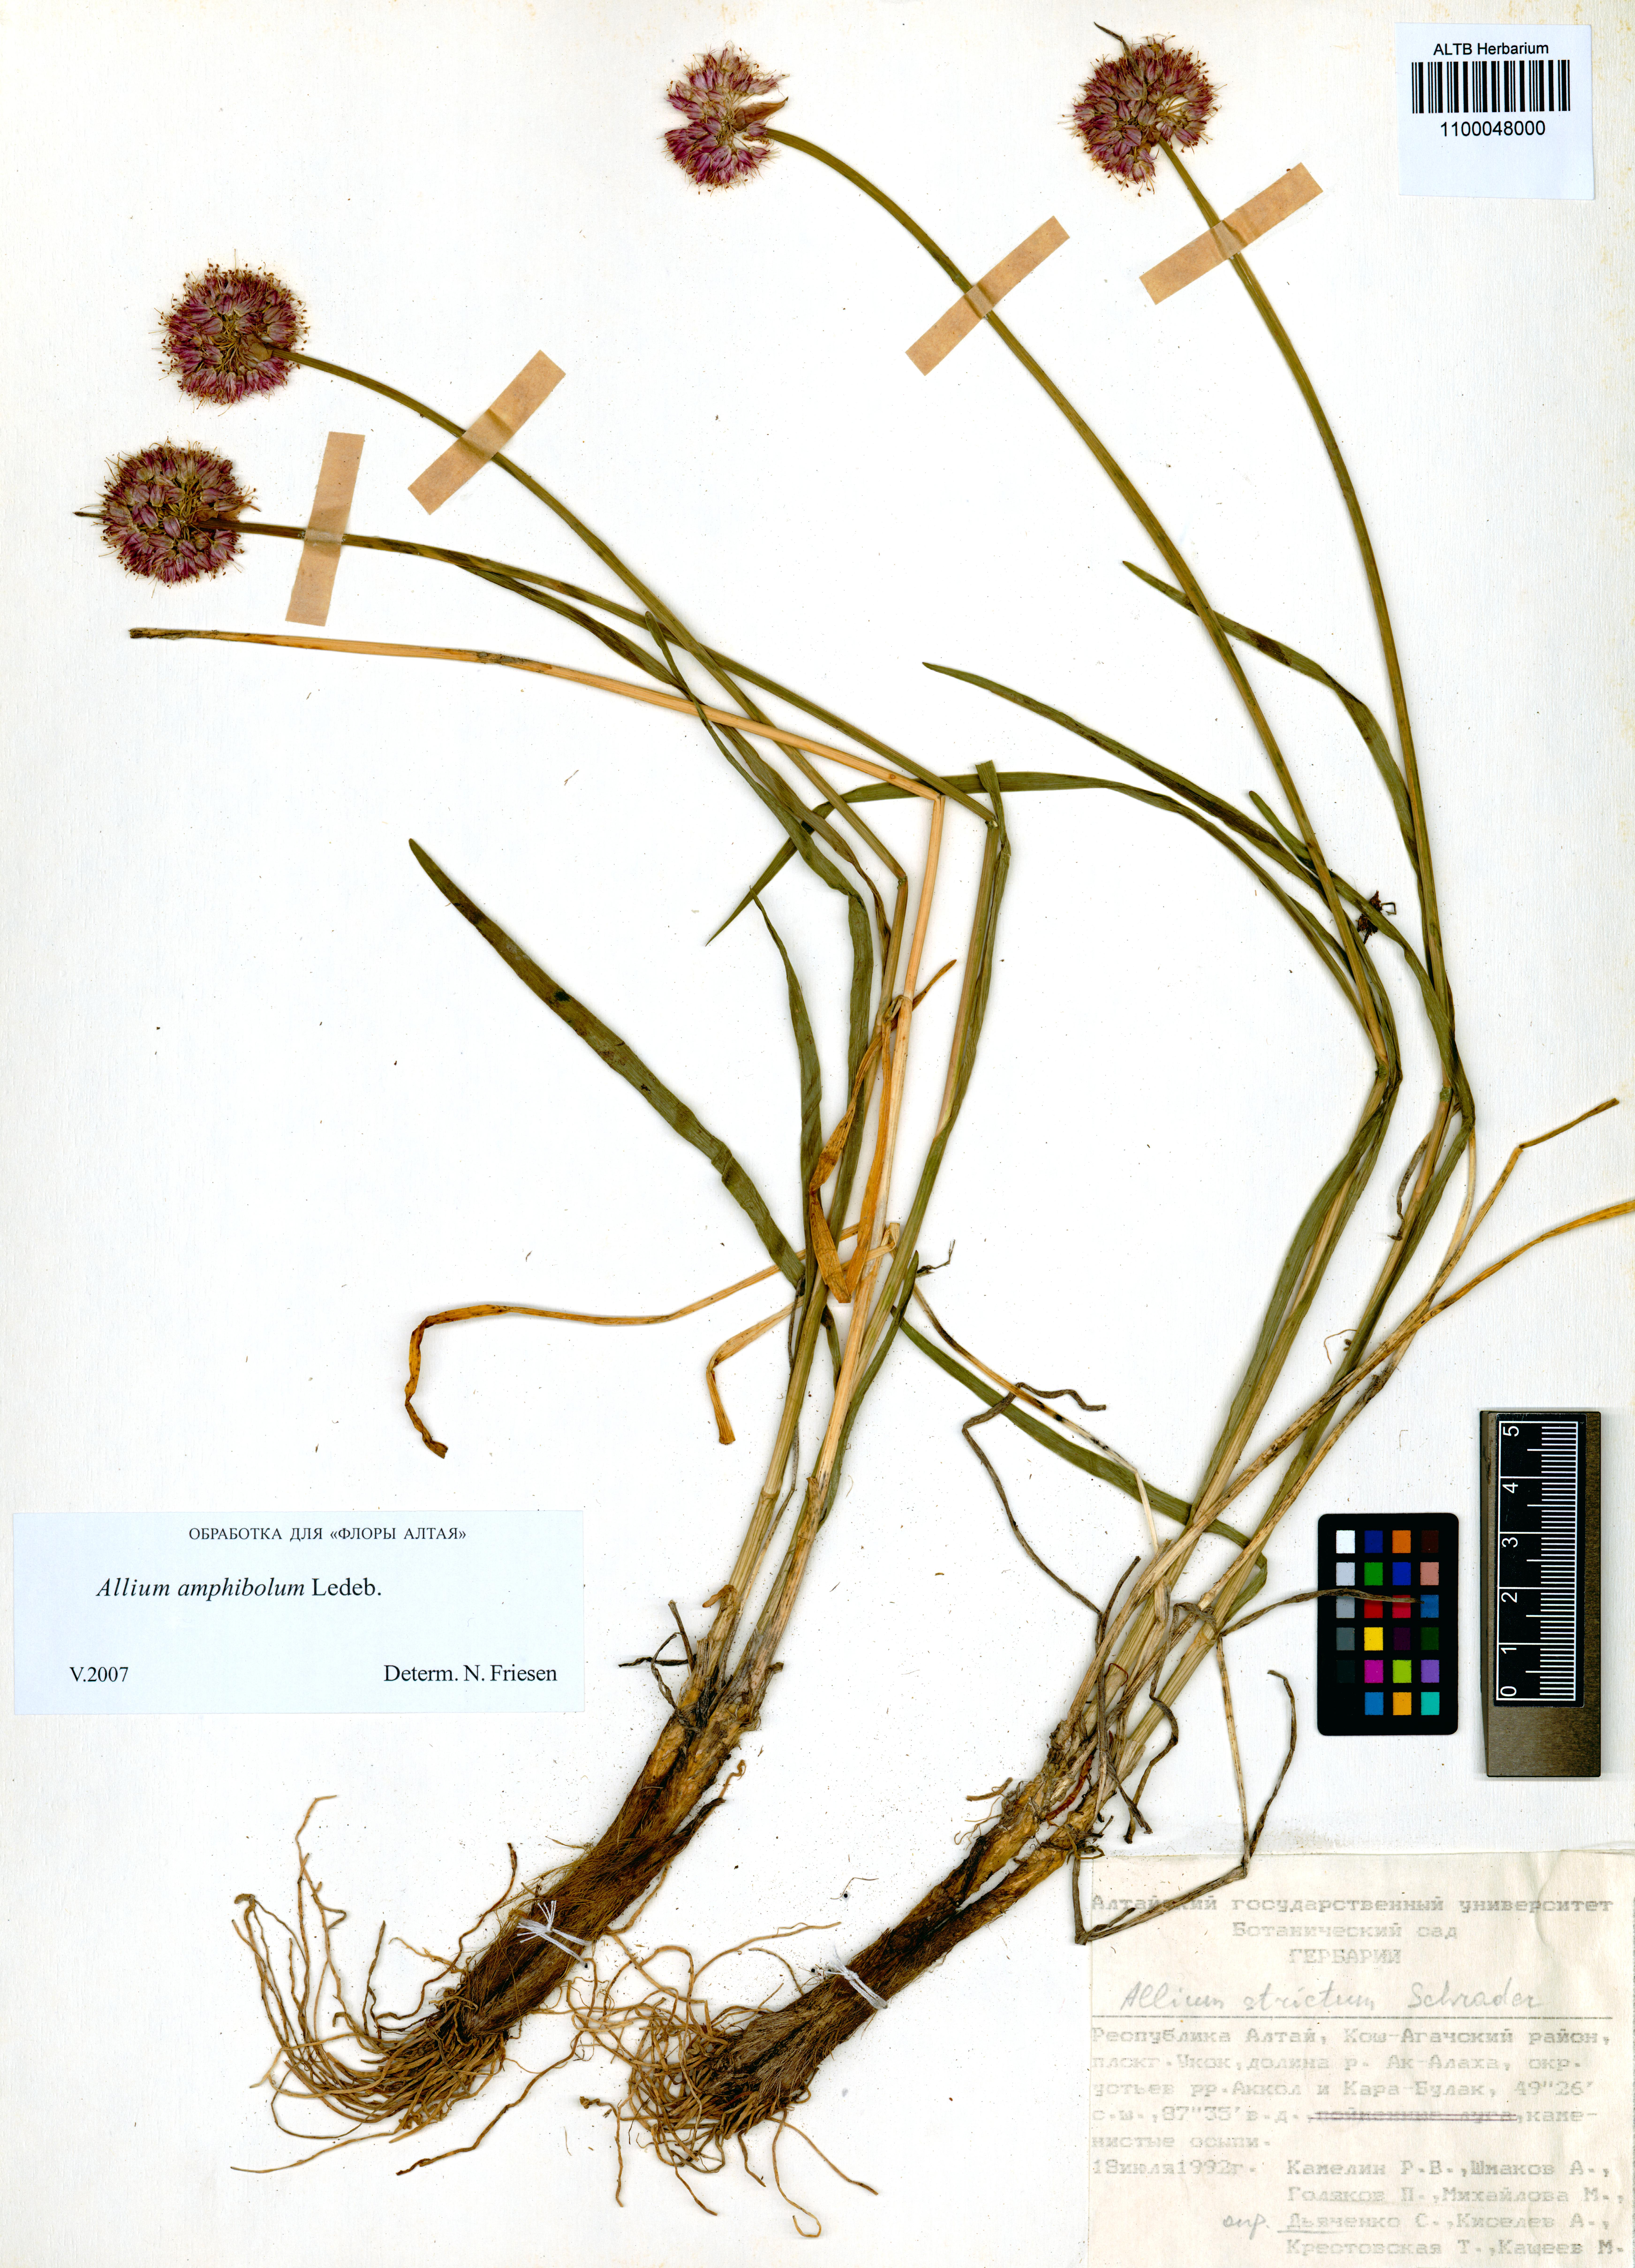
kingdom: Plantae
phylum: Tracheophyta
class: Liliopsida
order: Asparagales
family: Amaryllidaceae
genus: Allium
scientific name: Allium amphibolum
